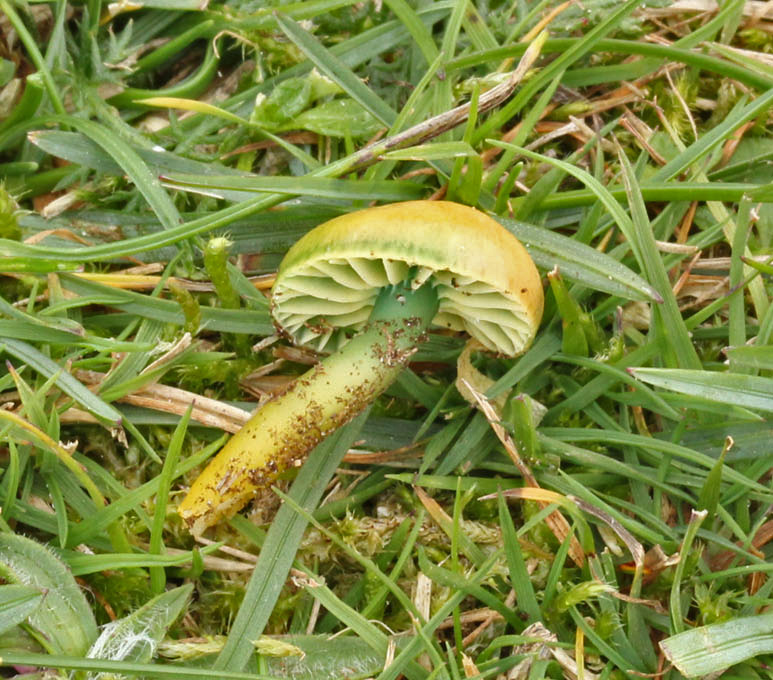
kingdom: Fungi
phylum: Basidiomycota
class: Agaricomycetes
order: Agaricales
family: Hygrophoraceae
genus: Gliophorus
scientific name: Gliophorus psittacinus
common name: papegøje-vokshat
